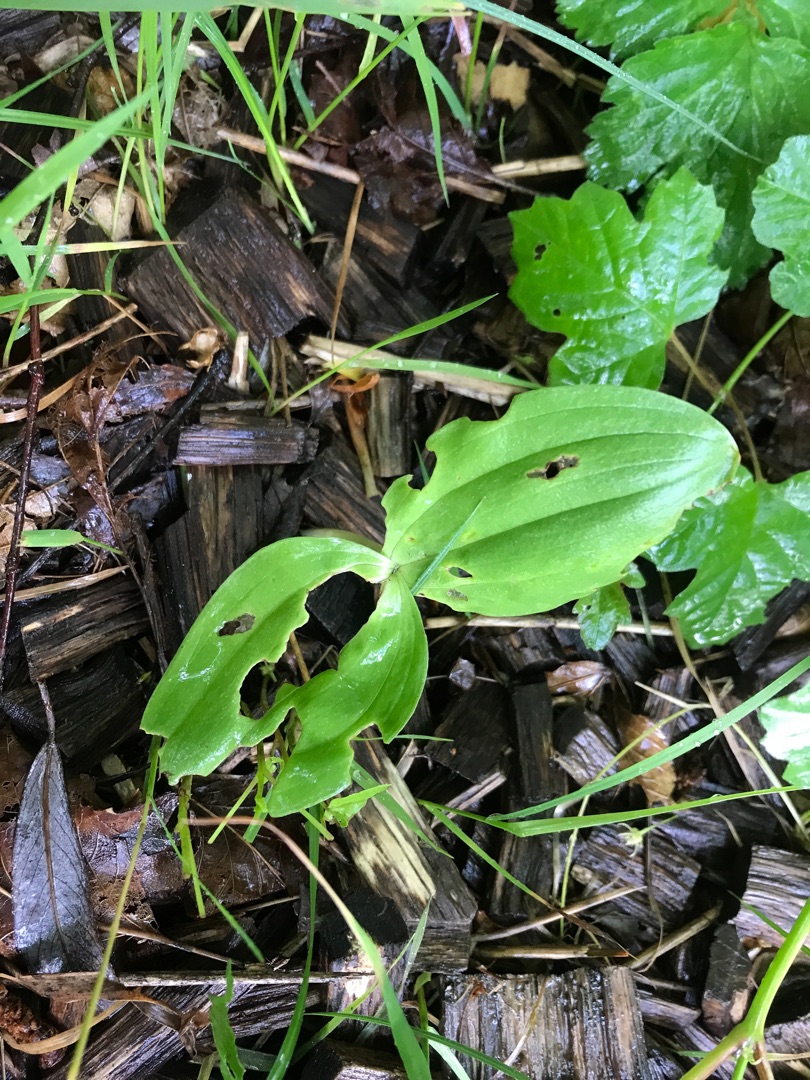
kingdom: Plantae
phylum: Tracheophyta
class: Liliopsida
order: Asparagales
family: Orchidaceae
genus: Neottia
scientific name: Neottia ovata
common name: Ægbladet fliglæbe
